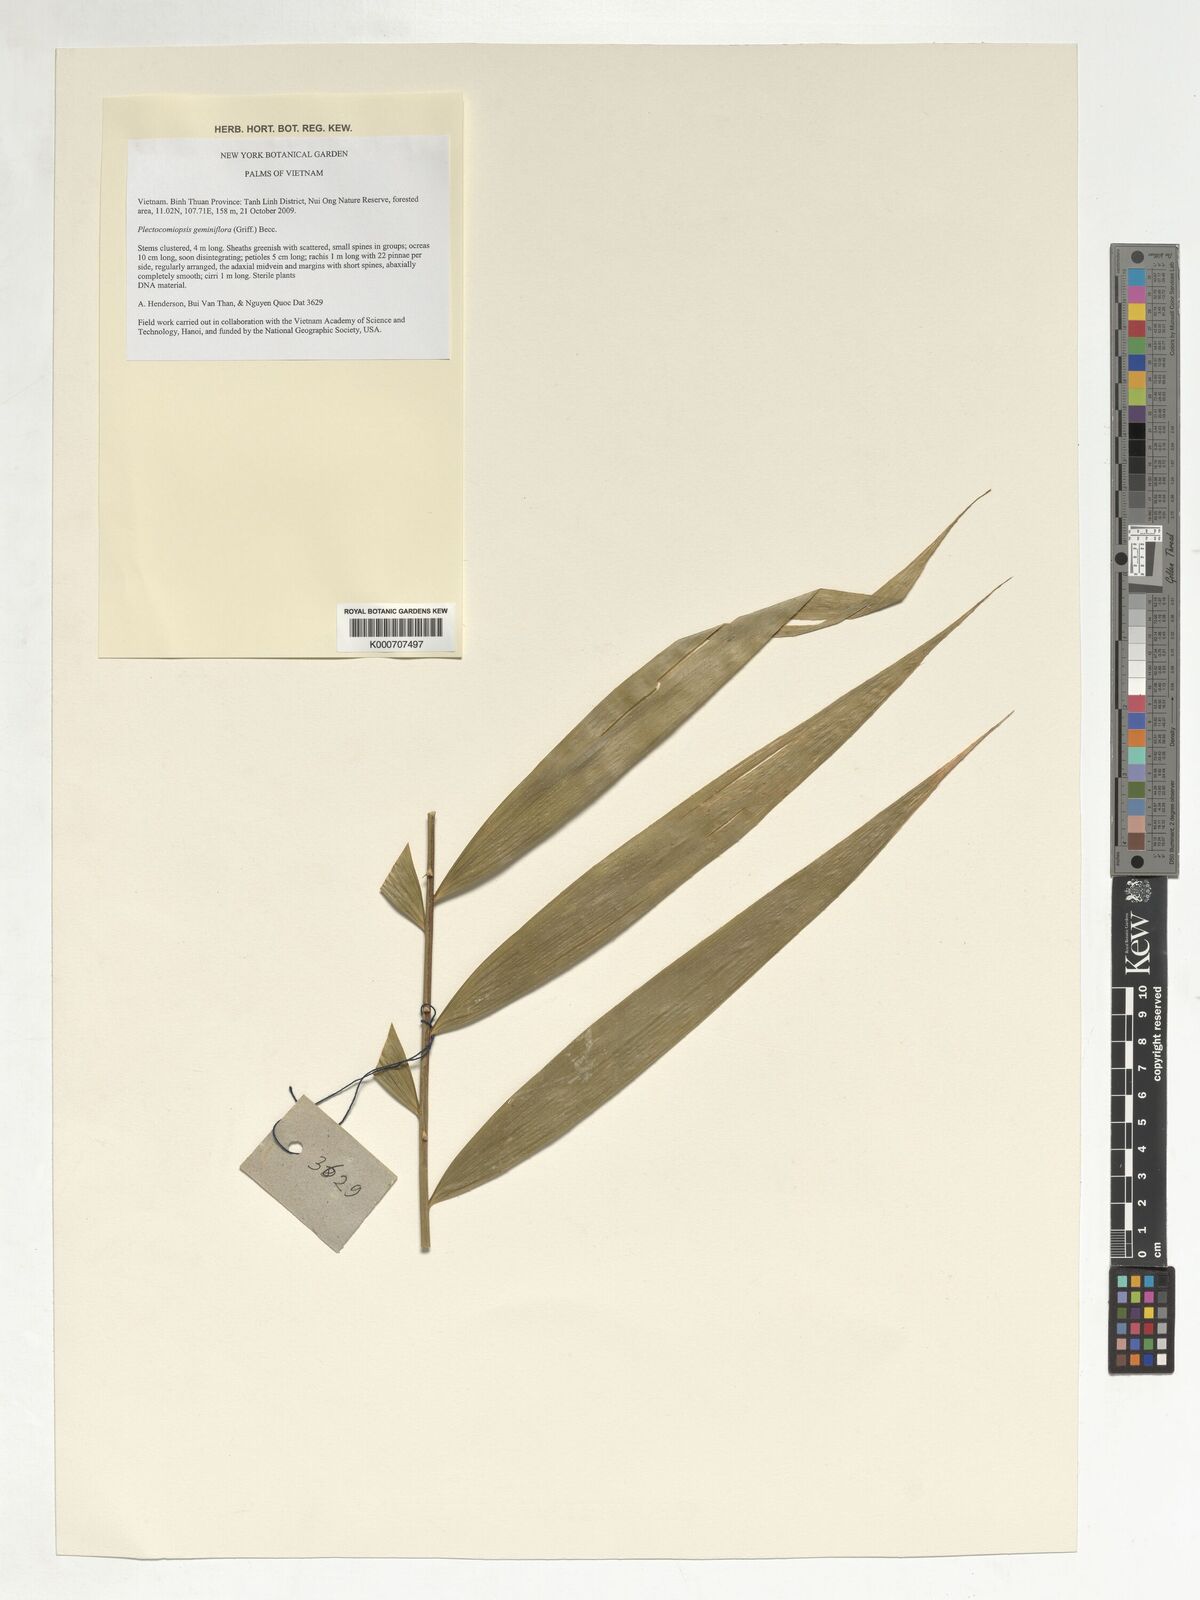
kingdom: Plantae
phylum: Tracheophyta
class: Liliopsida
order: Arecales
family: Arecaceae
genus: Plectocomiopsis
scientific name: Plectocomiopsis geminiflora
